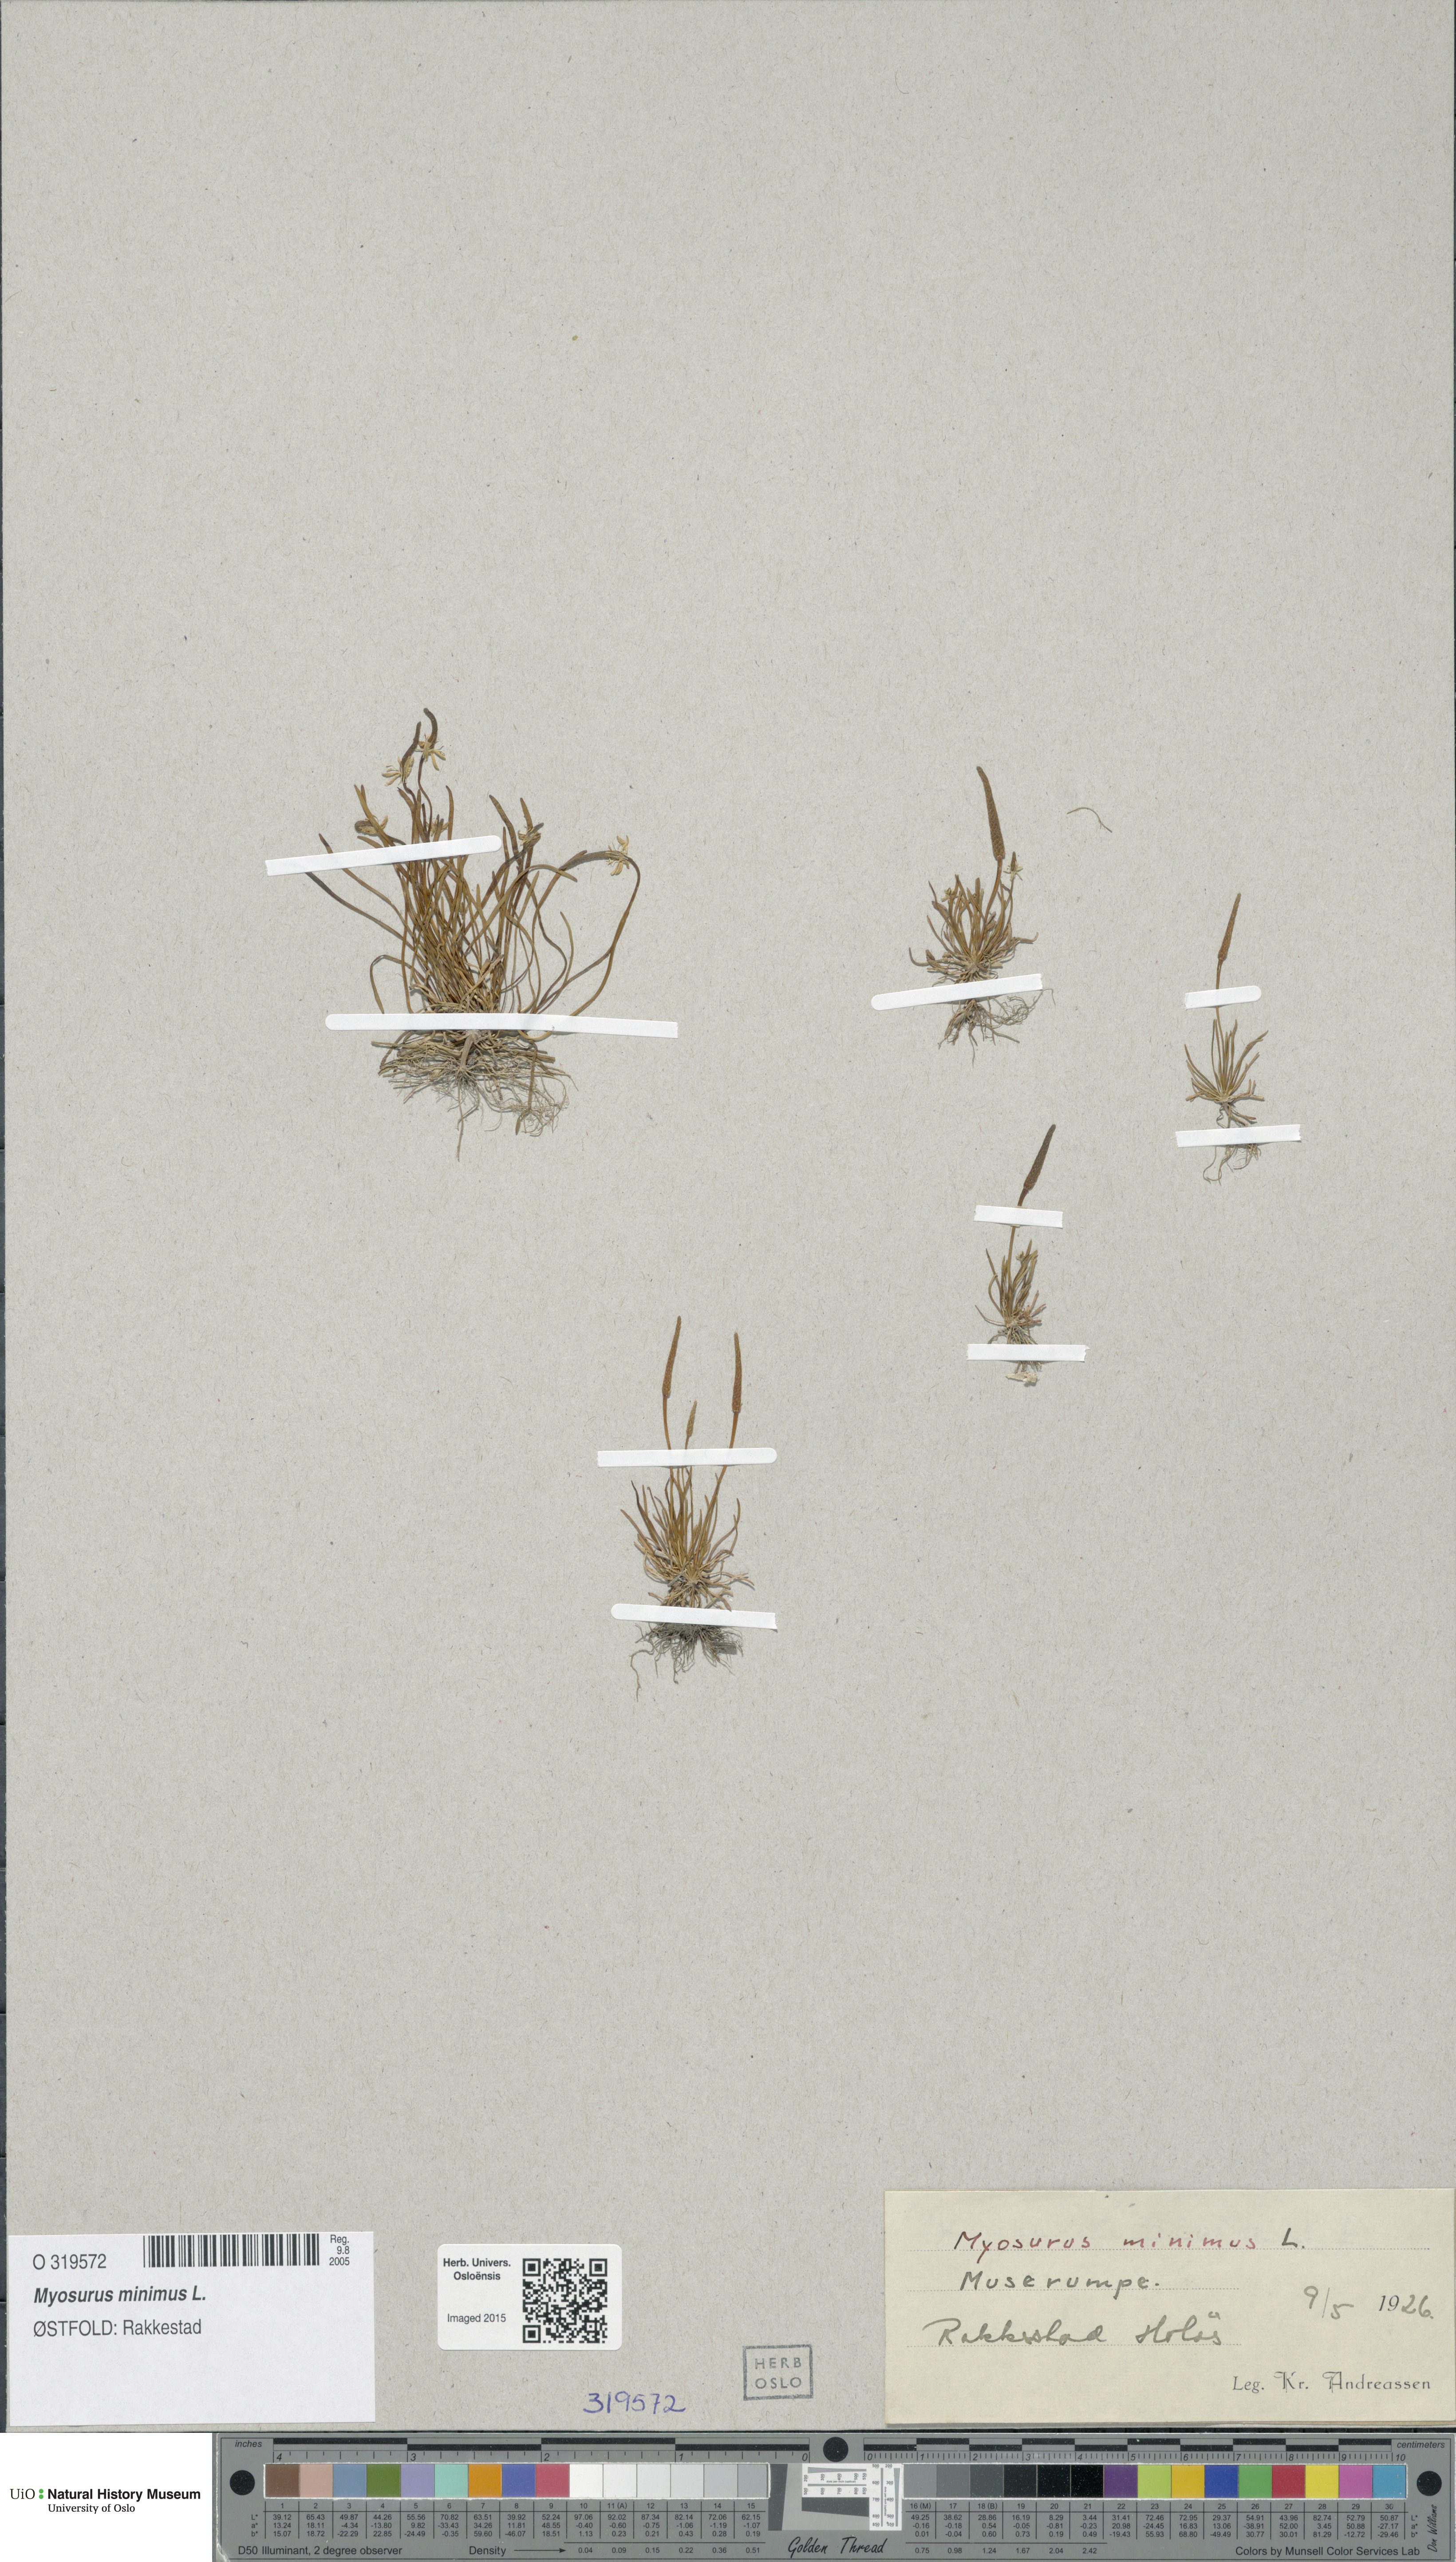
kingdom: Plantae
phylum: Tracheophyta
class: Magnoliopsida
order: Ranunculales
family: Ranunculaceae
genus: Myosurus
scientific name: Myosurus minimus
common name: Mousetail
